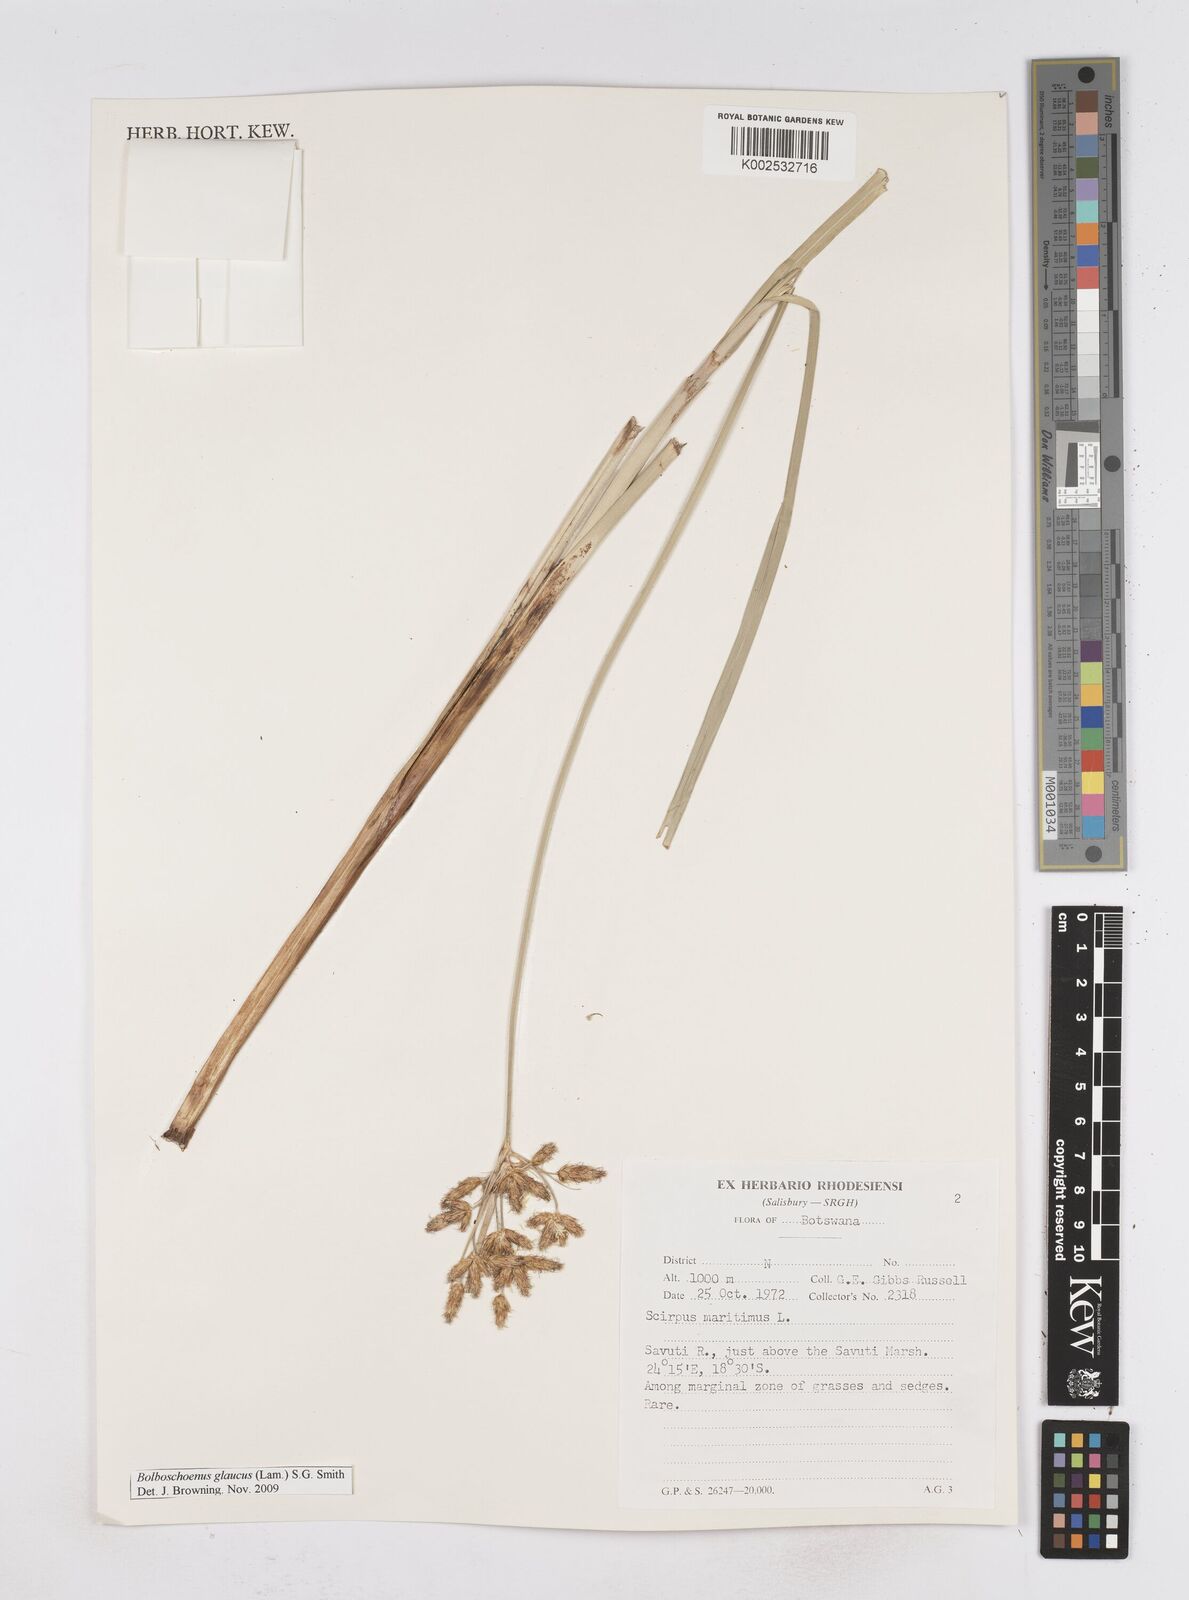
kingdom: Plantae
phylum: Tracheophyta
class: Liliopsida
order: Poales
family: Cyperaceae
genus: Bolboschoenus
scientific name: Bolboschoenus glaucus
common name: Tuberous bulrush
